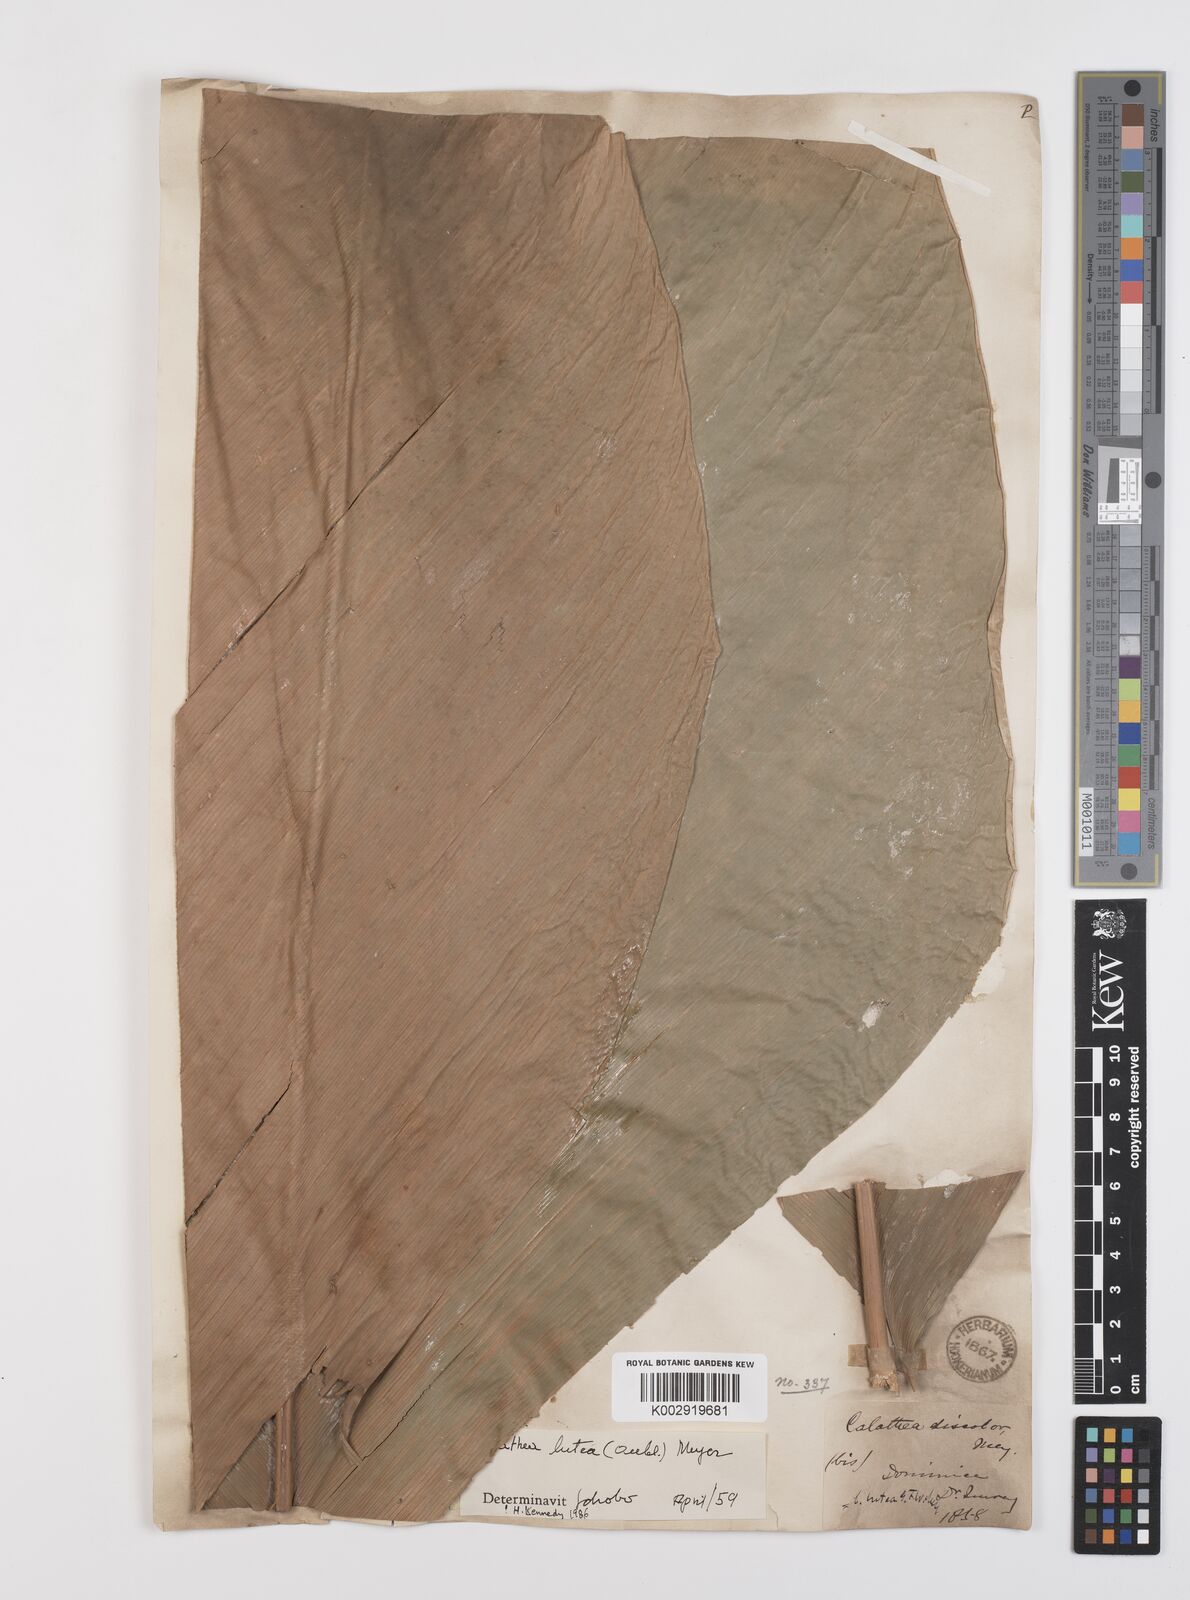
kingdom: Plantae
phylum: Tracheophyta
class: Liliopsida
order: Zingiberales
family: Marantaceae
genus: Calathea
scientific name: Calathea lutea
